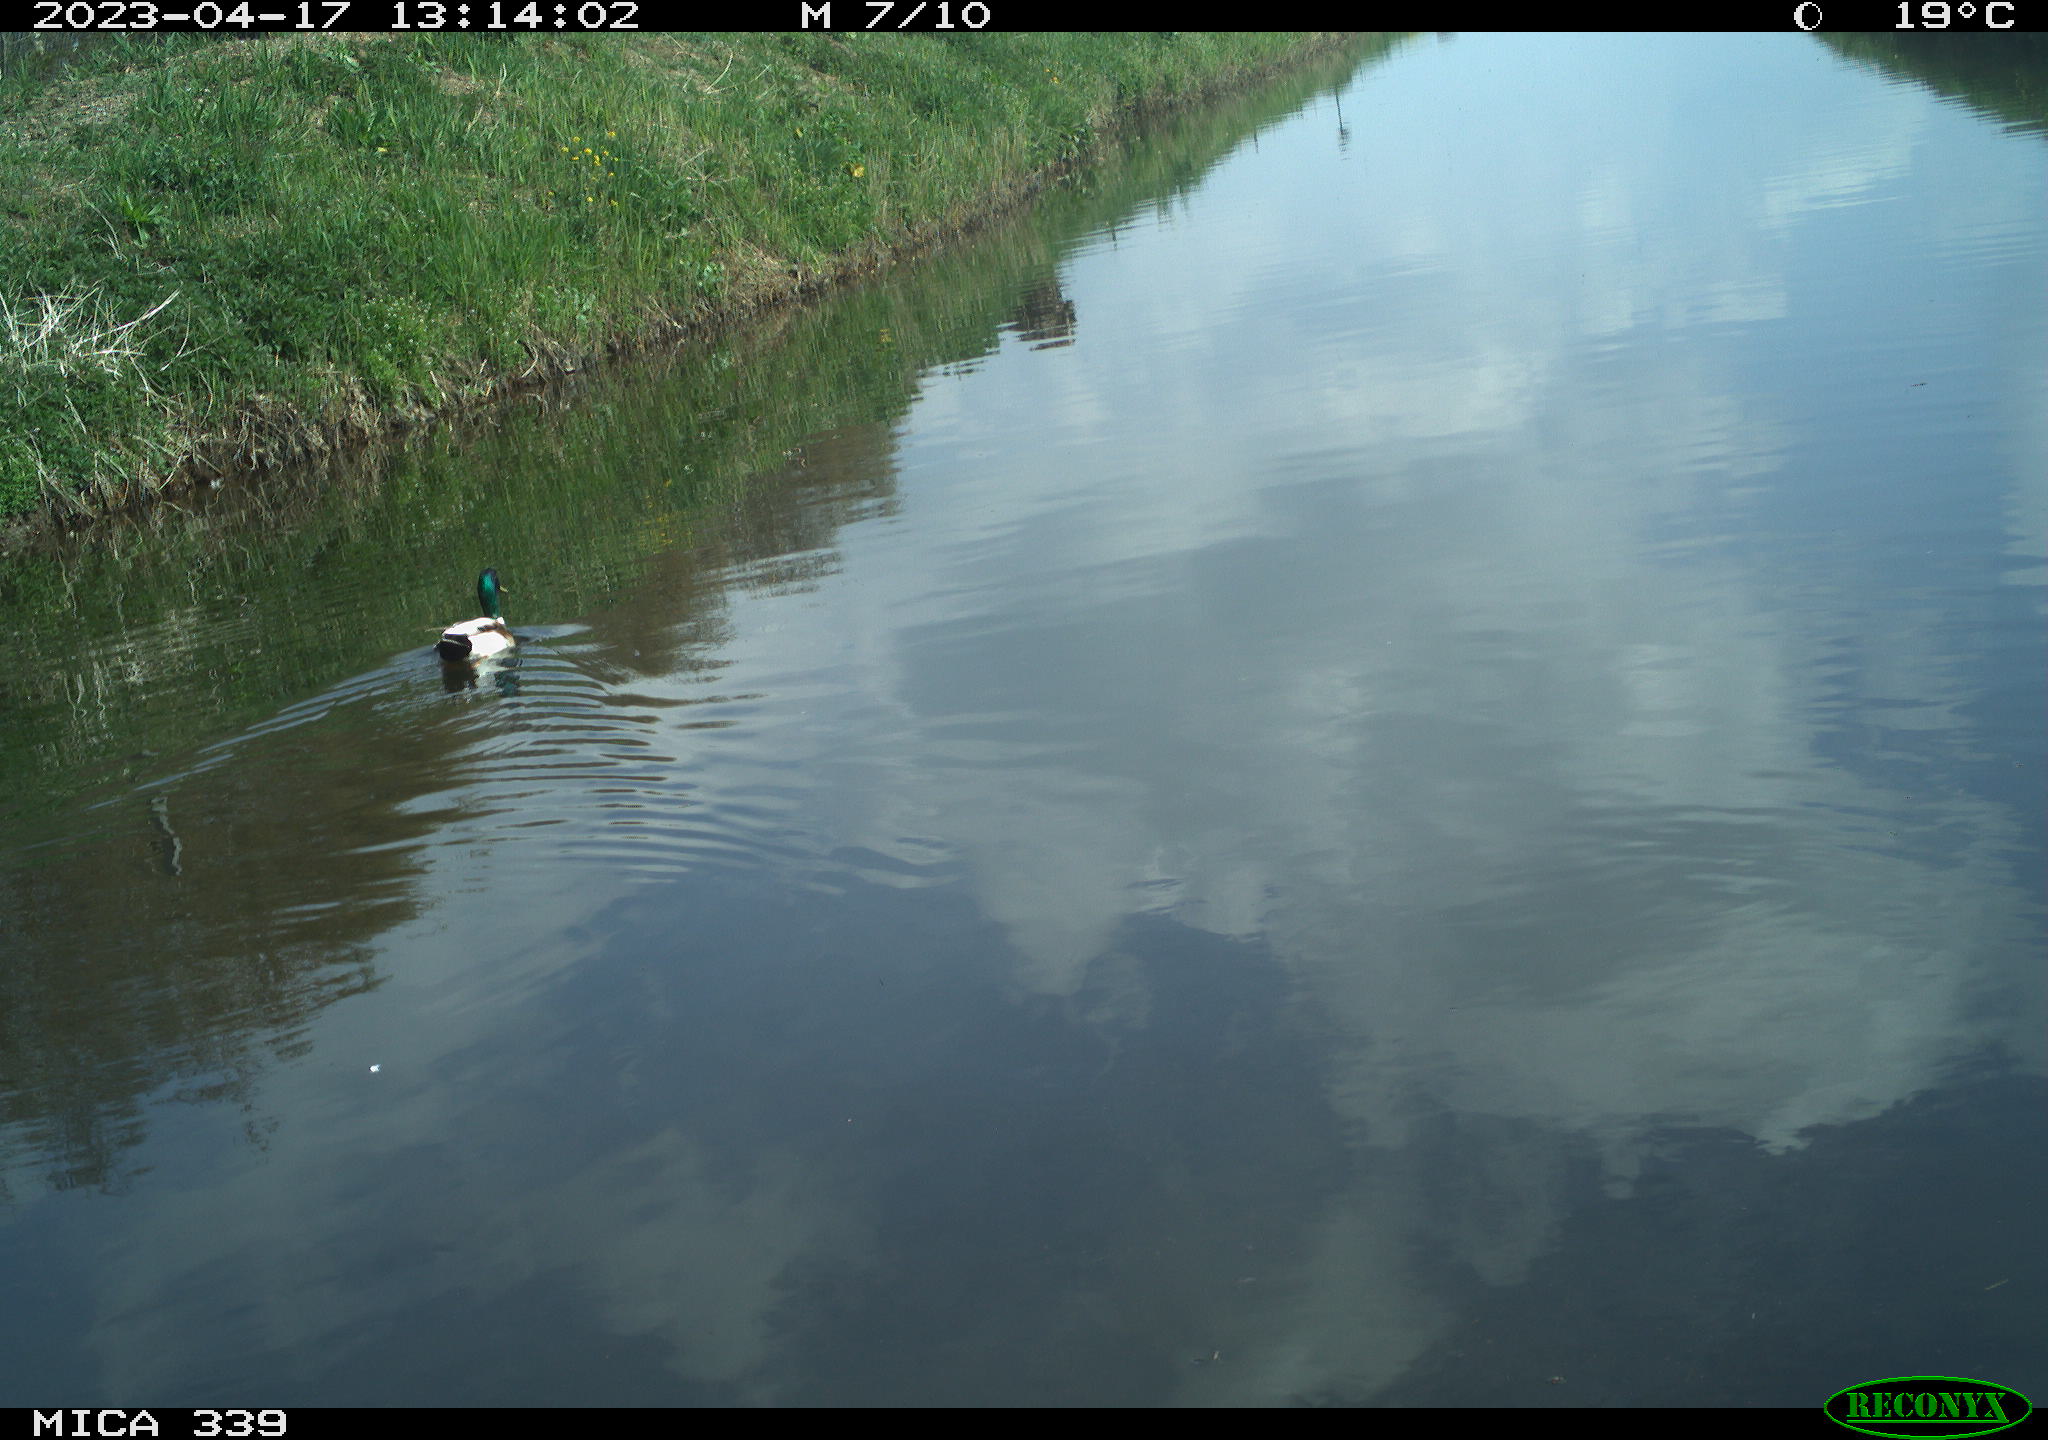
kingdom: Animalia
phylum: Chordata
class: Aves
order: Anseriformes
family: Anatidae
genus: Anas
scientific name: Anas platyrhynchos
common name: Mallard
